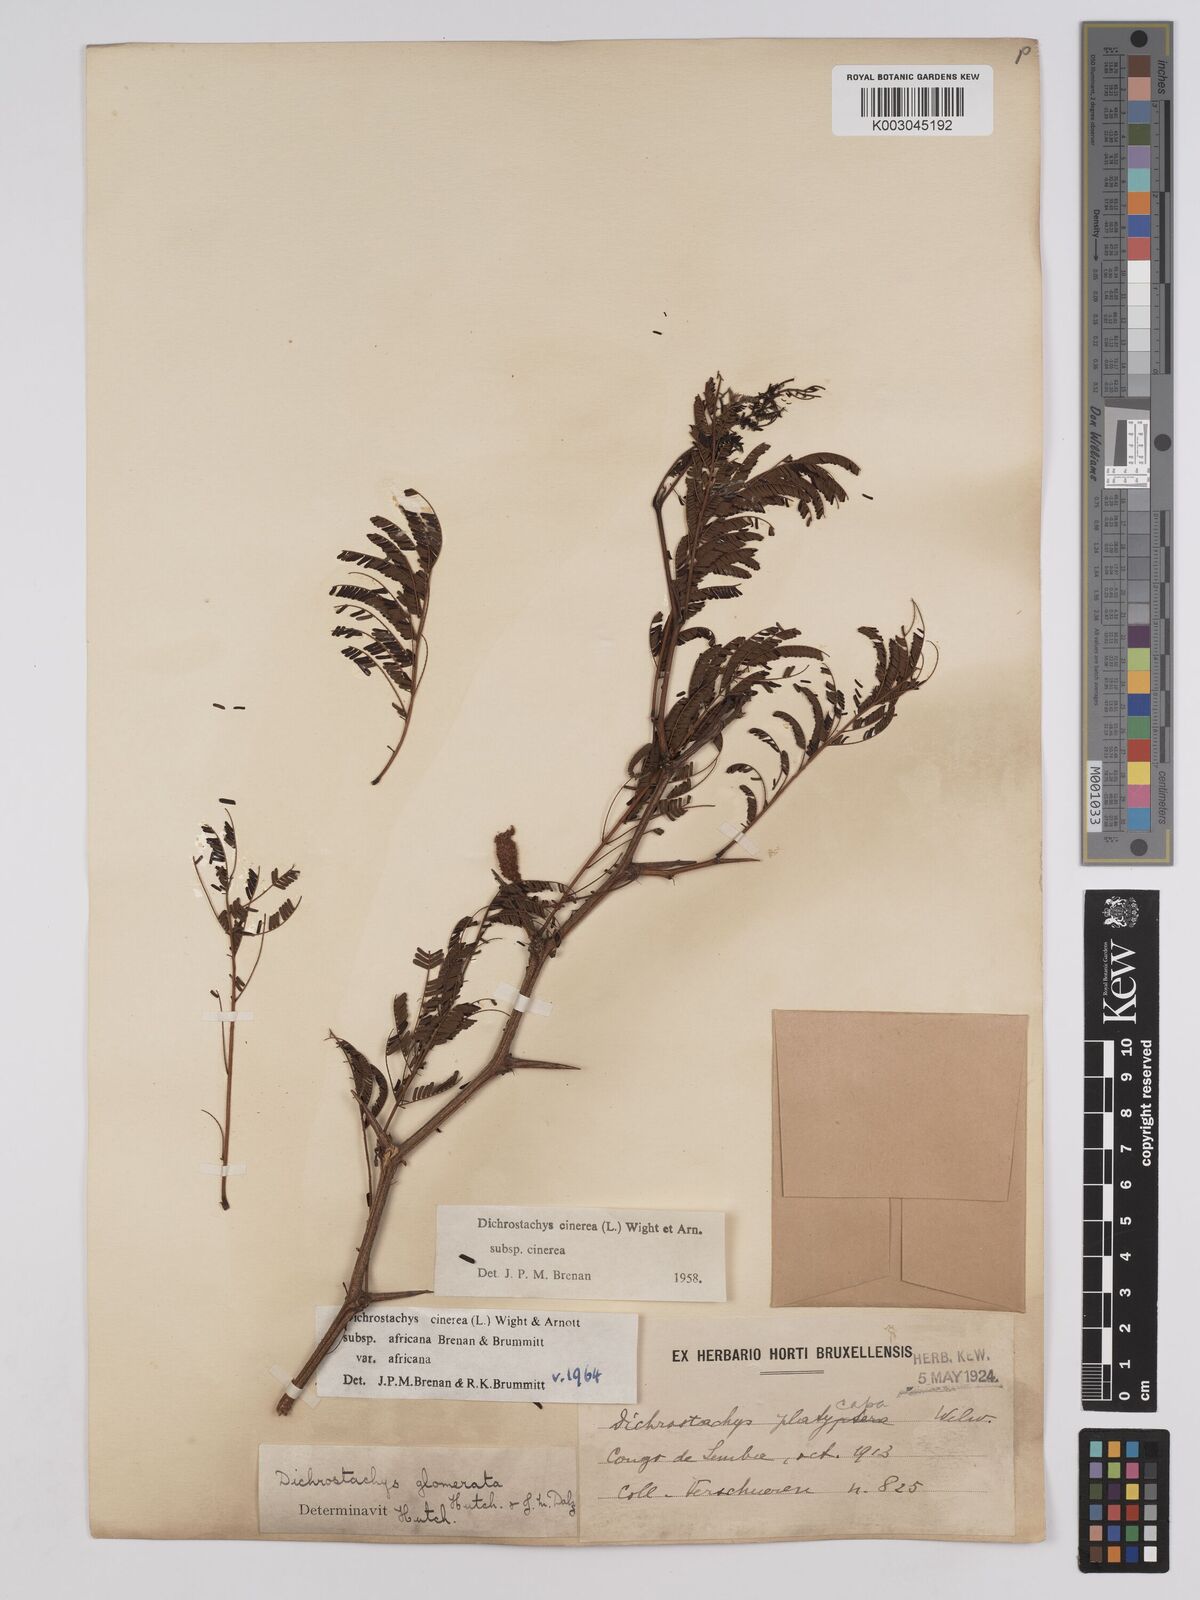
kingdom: Plantae
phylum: Tracheophyta
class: Magnoliopsida
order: Fabales
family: Fabaceae
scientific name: Fabaceae
